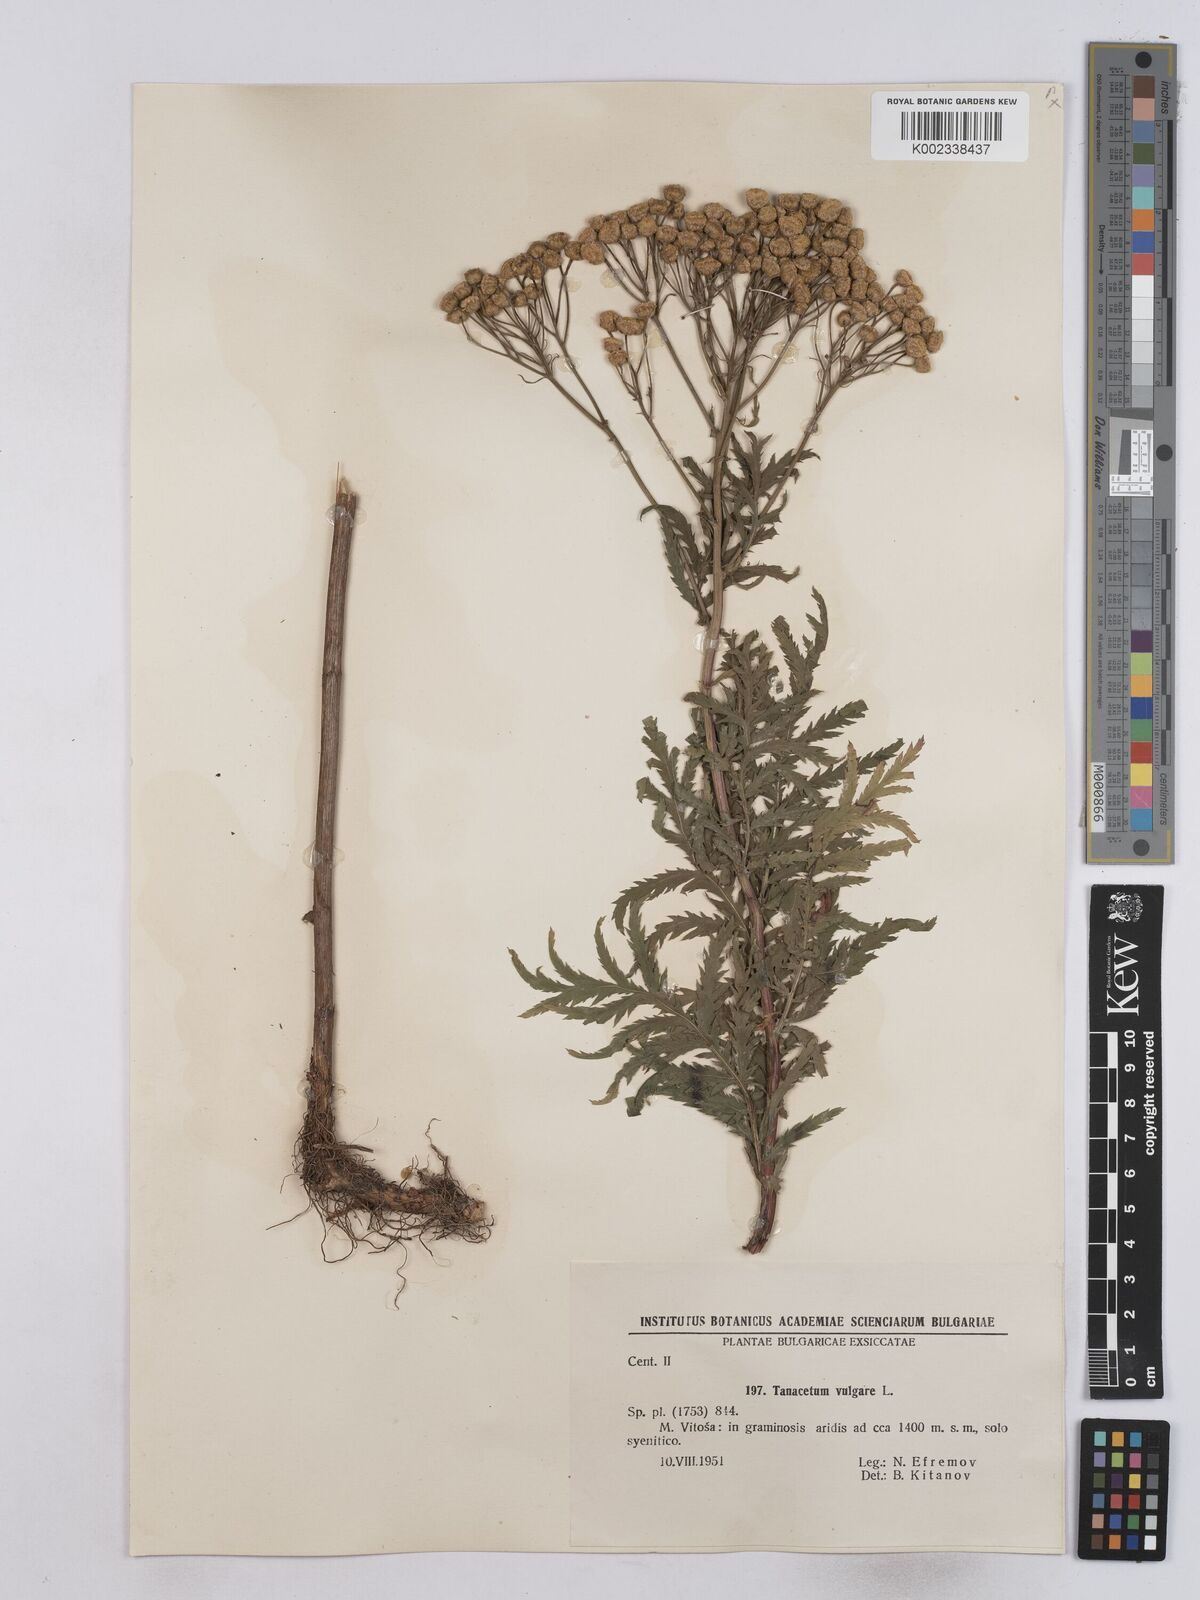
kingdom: Plantae
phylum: Tracheophyta
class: Magnoliopsida
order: Asterales
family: Asteraceae
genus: Tanacetum
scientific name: Tanacetum vulgare
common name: Common tansy
